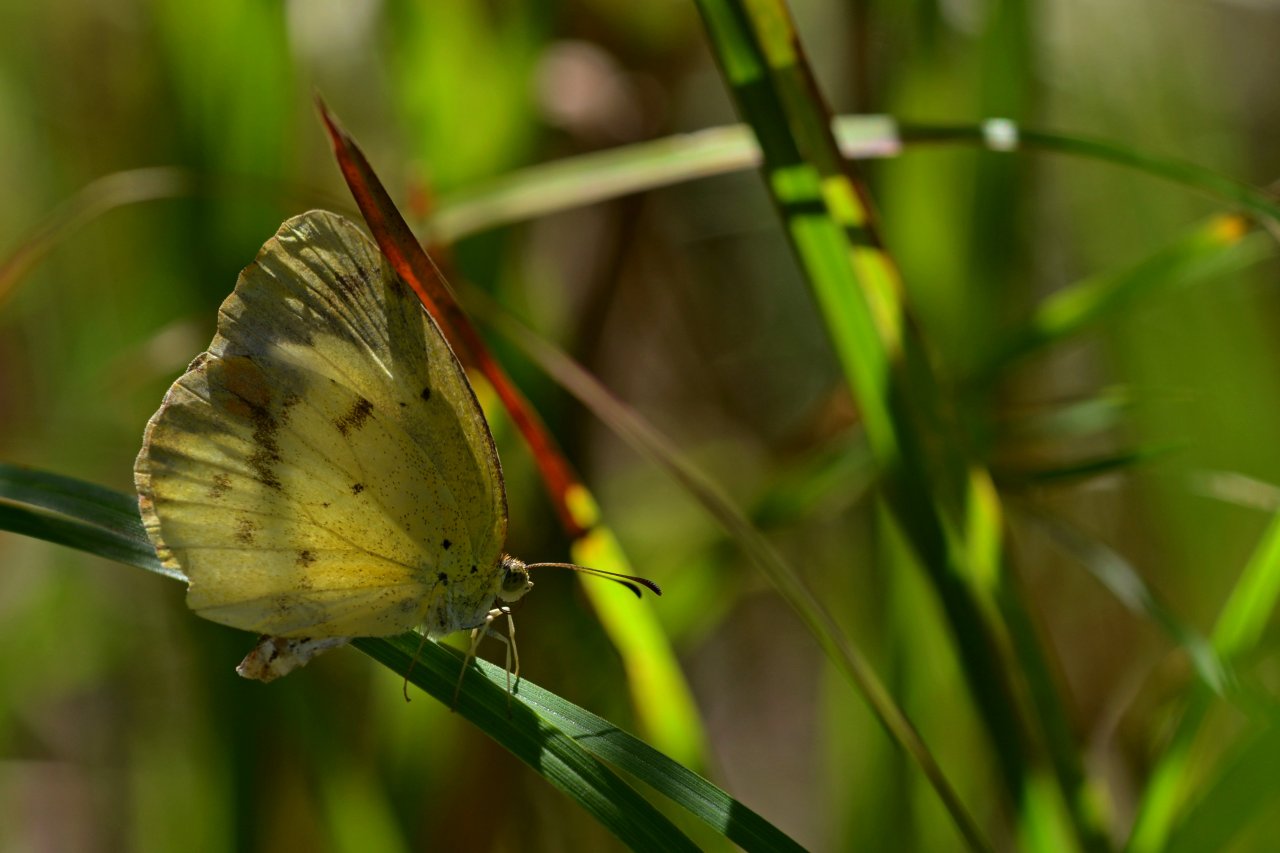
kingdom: Animalia
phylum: Arthropoda
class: Insecta
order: Lepidoptera
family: Pieridae
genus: Pyrisitia
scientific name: Pyrisitia lisa
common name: Little Yellow
